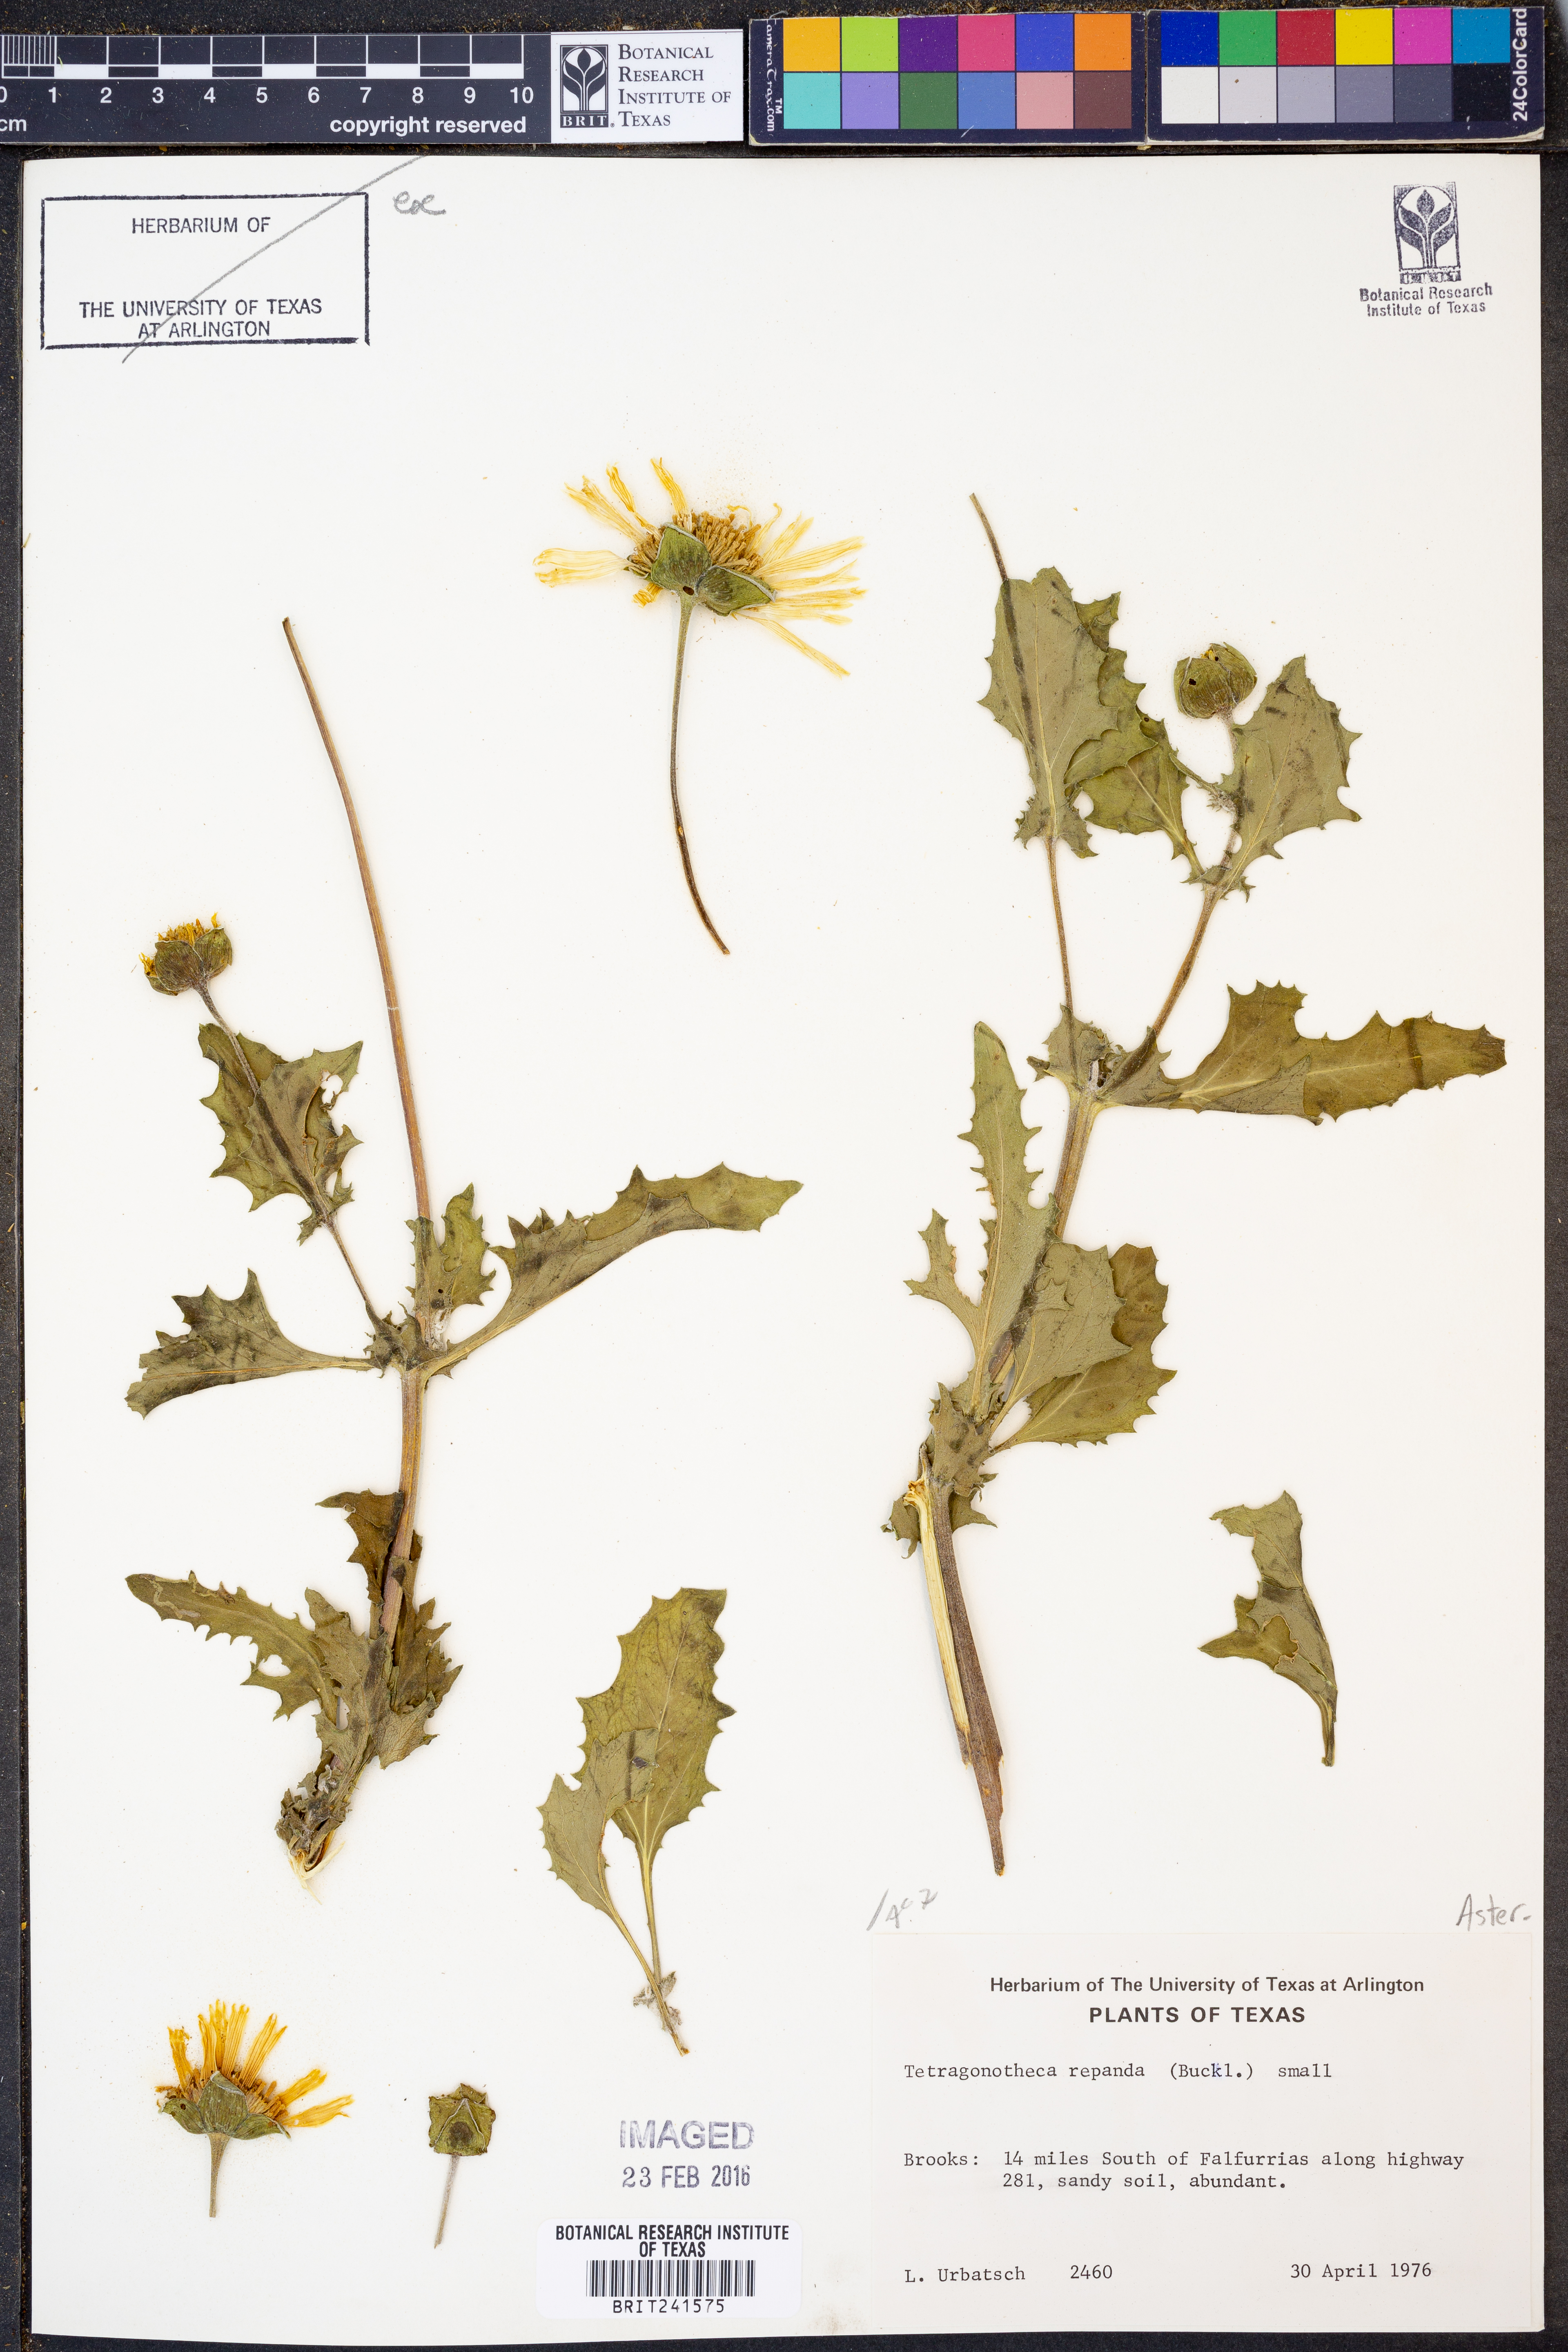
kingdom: Plantae
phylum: Tracheophyta
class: Magnoliopsida
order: Asterales
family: Asteraceae
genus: Tetragonotheca
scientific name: Tetragonotheca repanda
